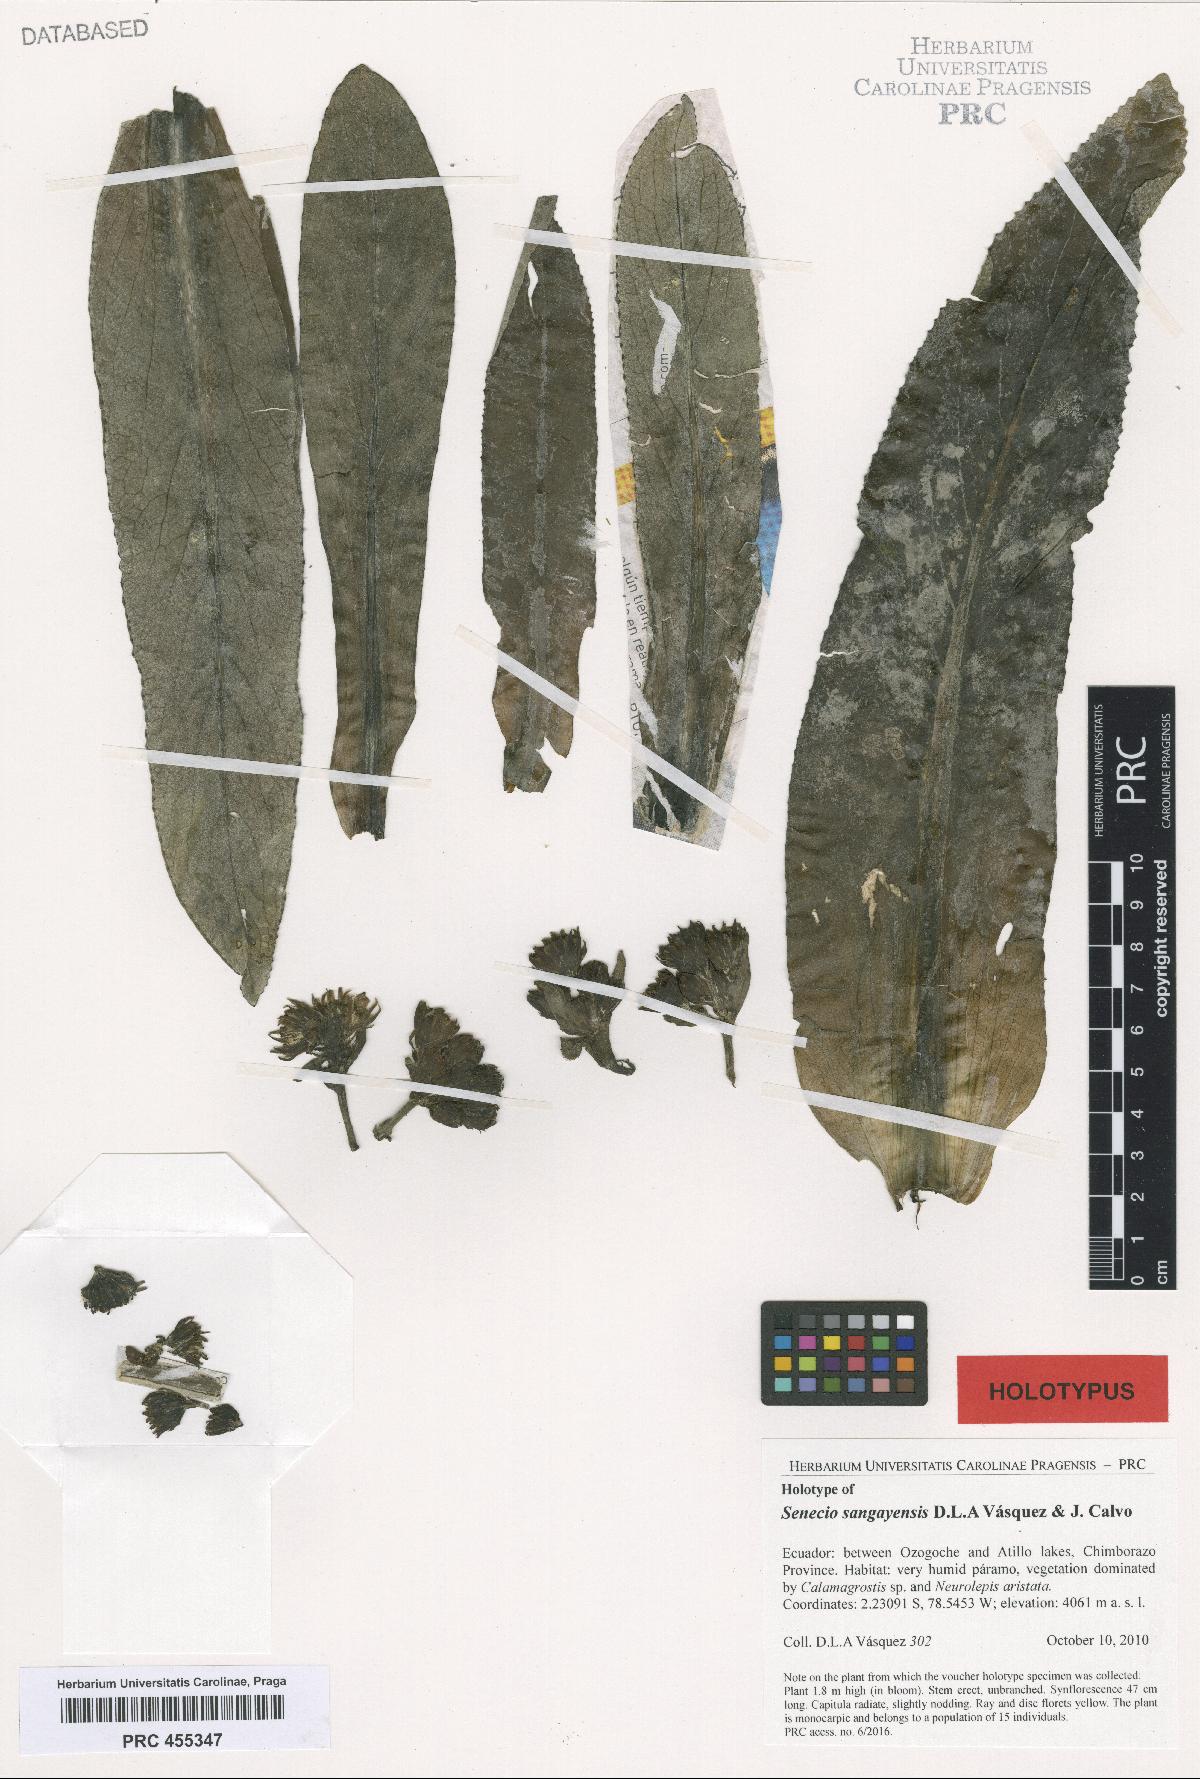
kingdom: Plantae
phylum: Tracheophyta
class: Magnoliopsida
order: Asterales
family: Asteraceae
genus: Senecio
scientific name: Senecio sangayensis
